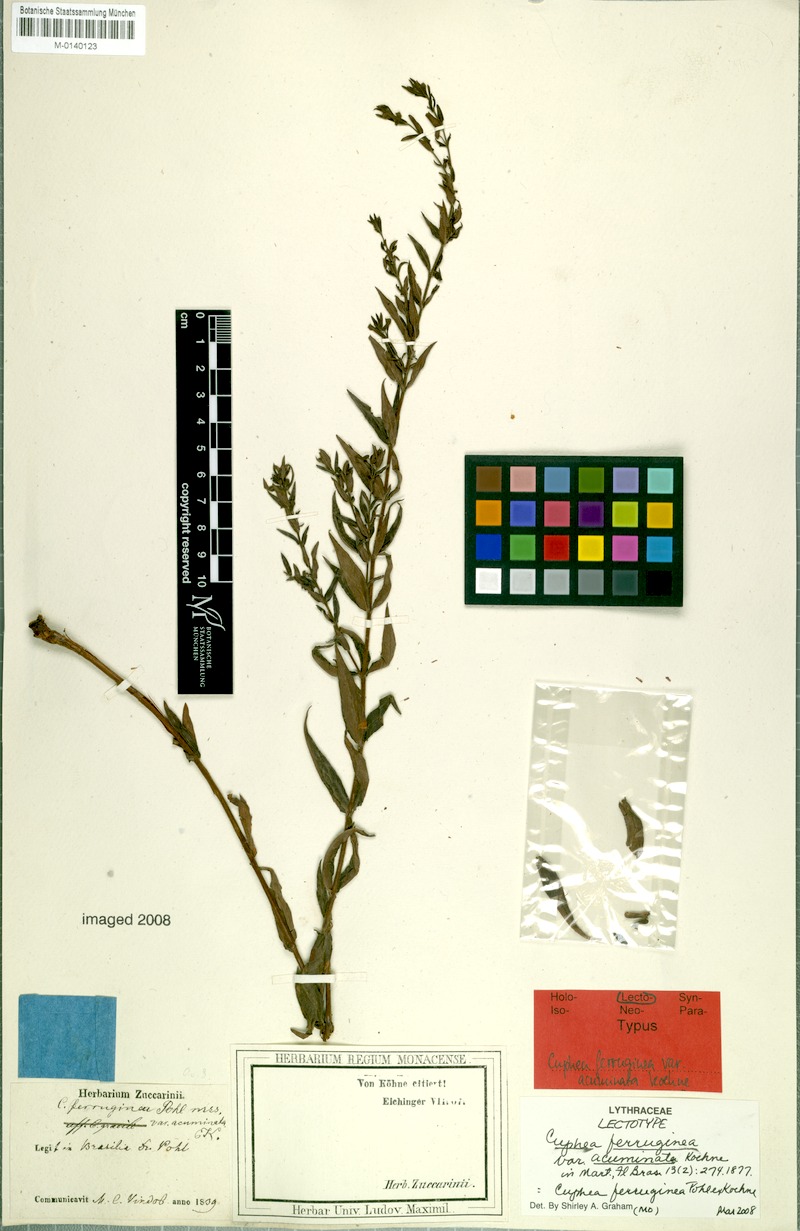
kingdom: Plantae
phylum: Tracheophyta
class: Magnoliopsida
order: Myrtales
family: Lythraceae
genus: Cuphea
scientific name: Cuphea ferruginea
